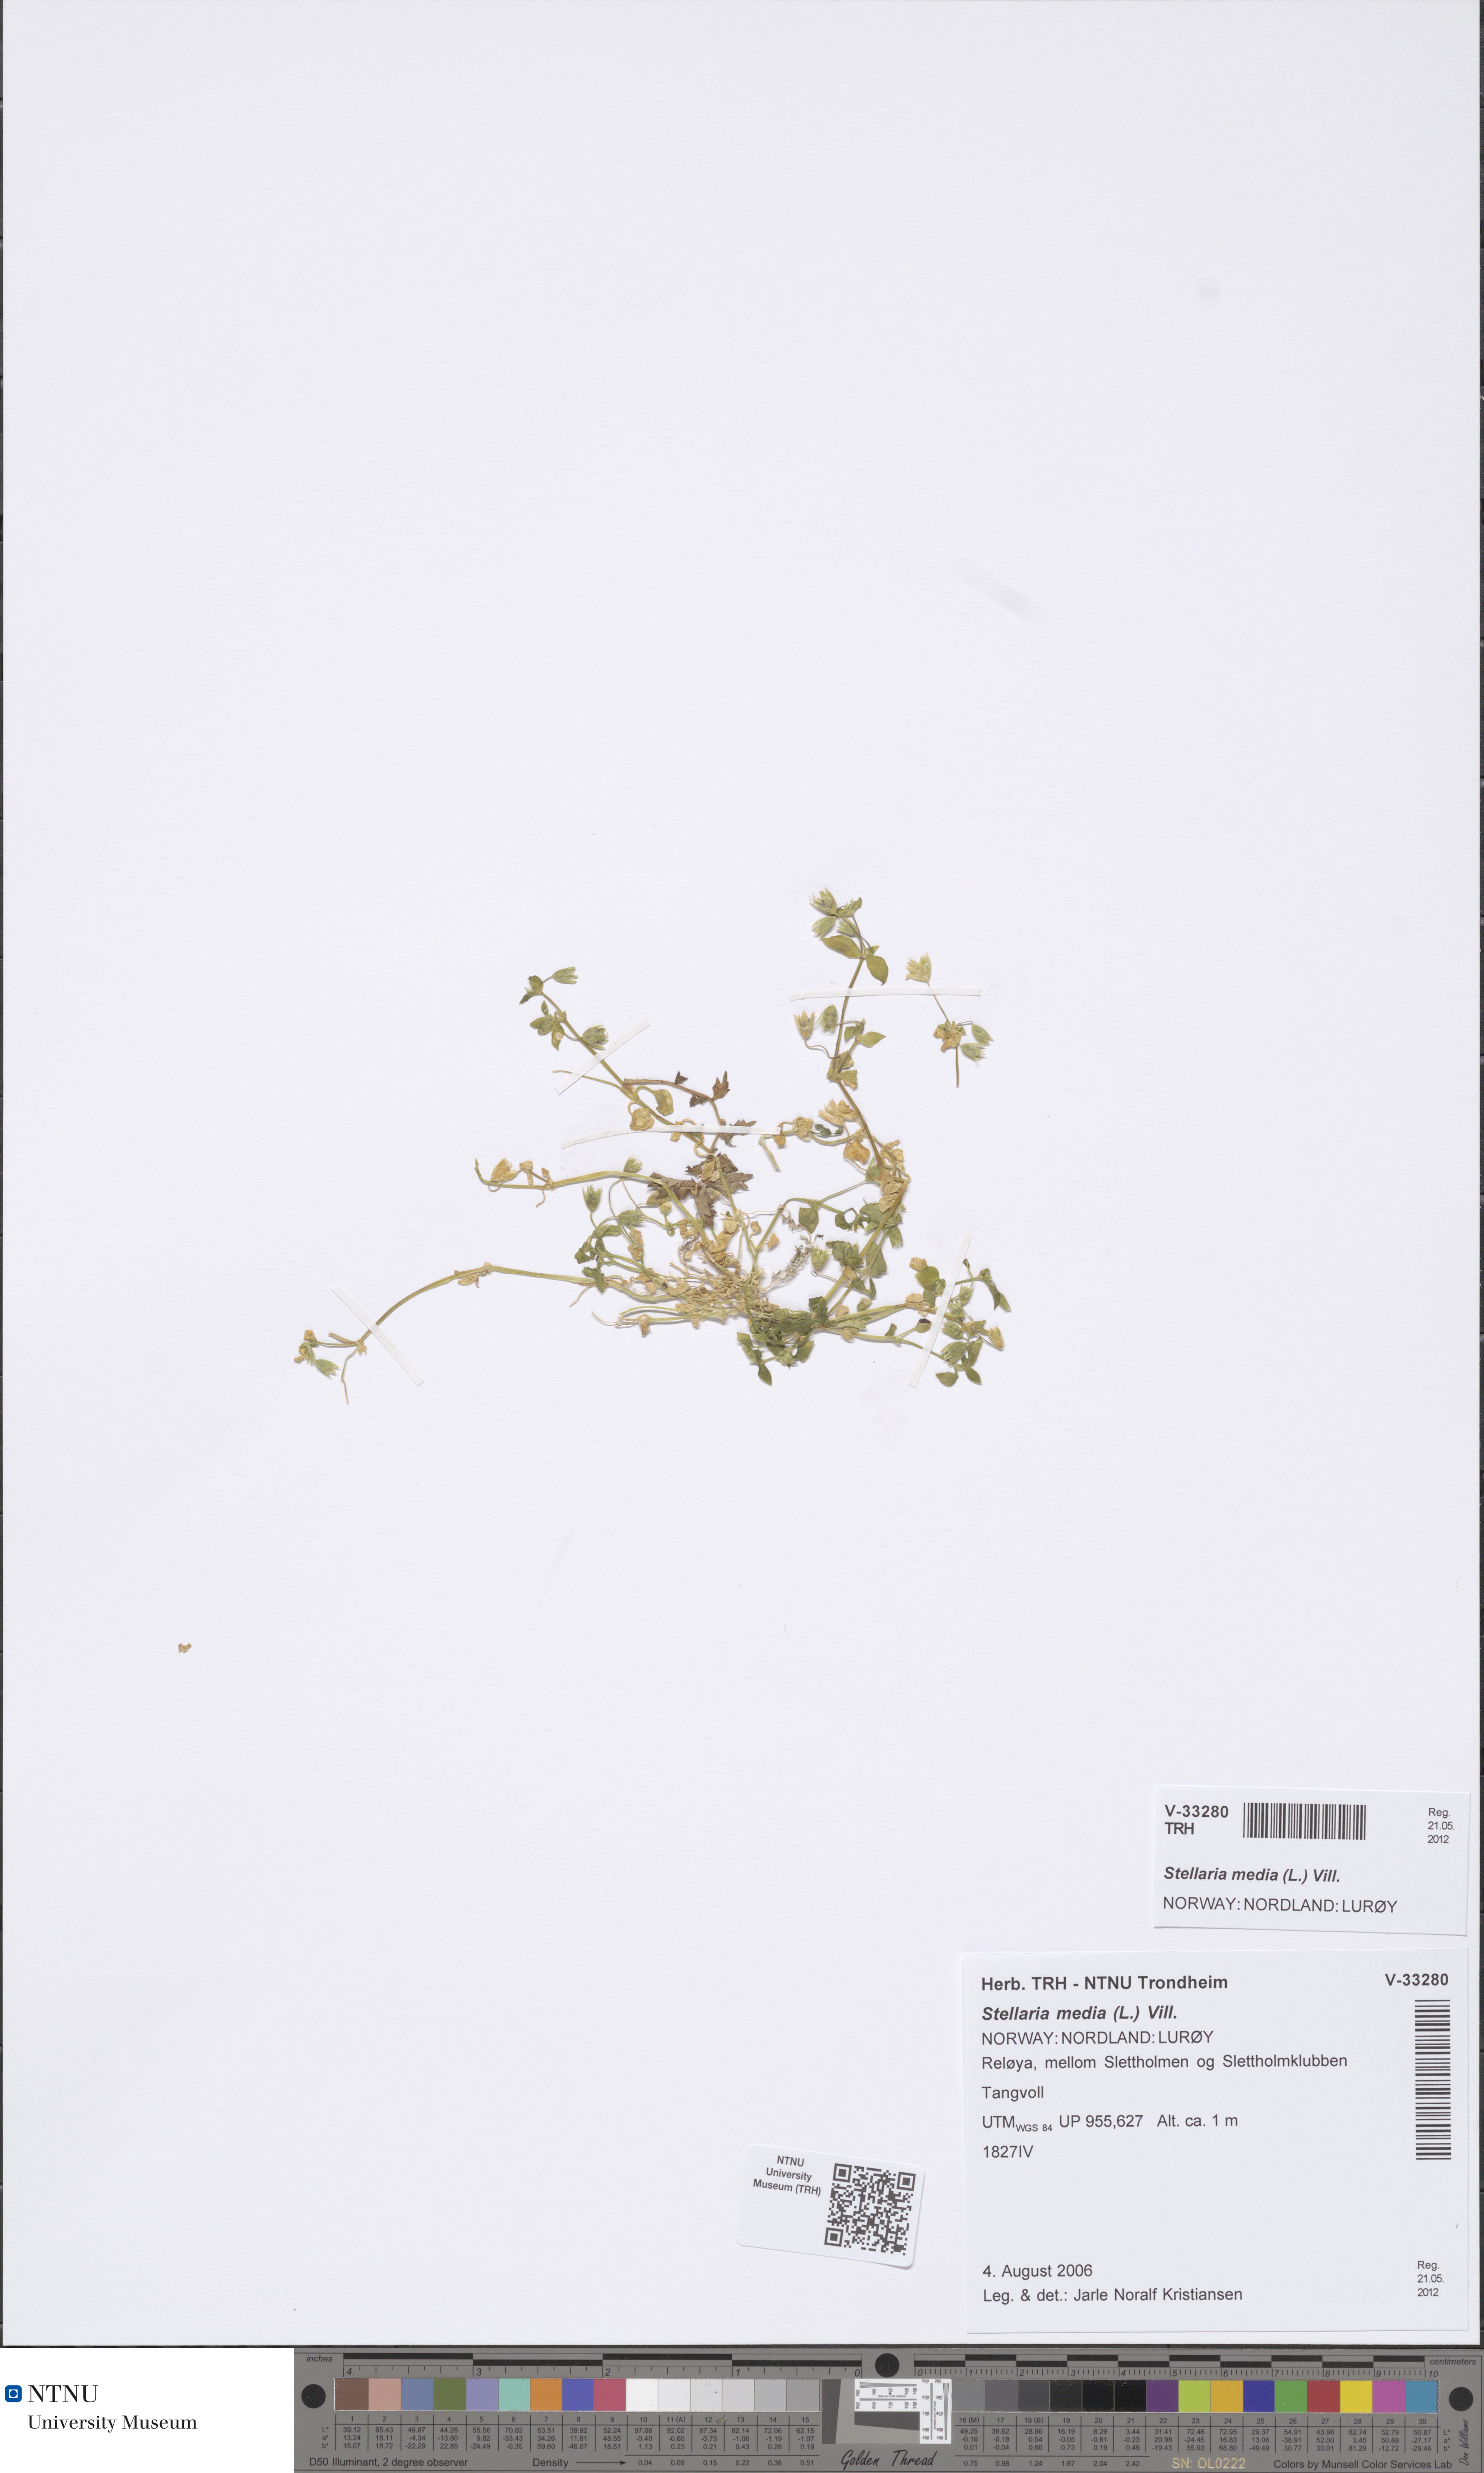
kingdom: Plantae
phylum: Tracheophyta
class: Magnoliopsida
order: Caryophyllales
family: Caryophyllaceae
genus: Stellaria
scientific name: Stellaria media
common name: Common chickweed
